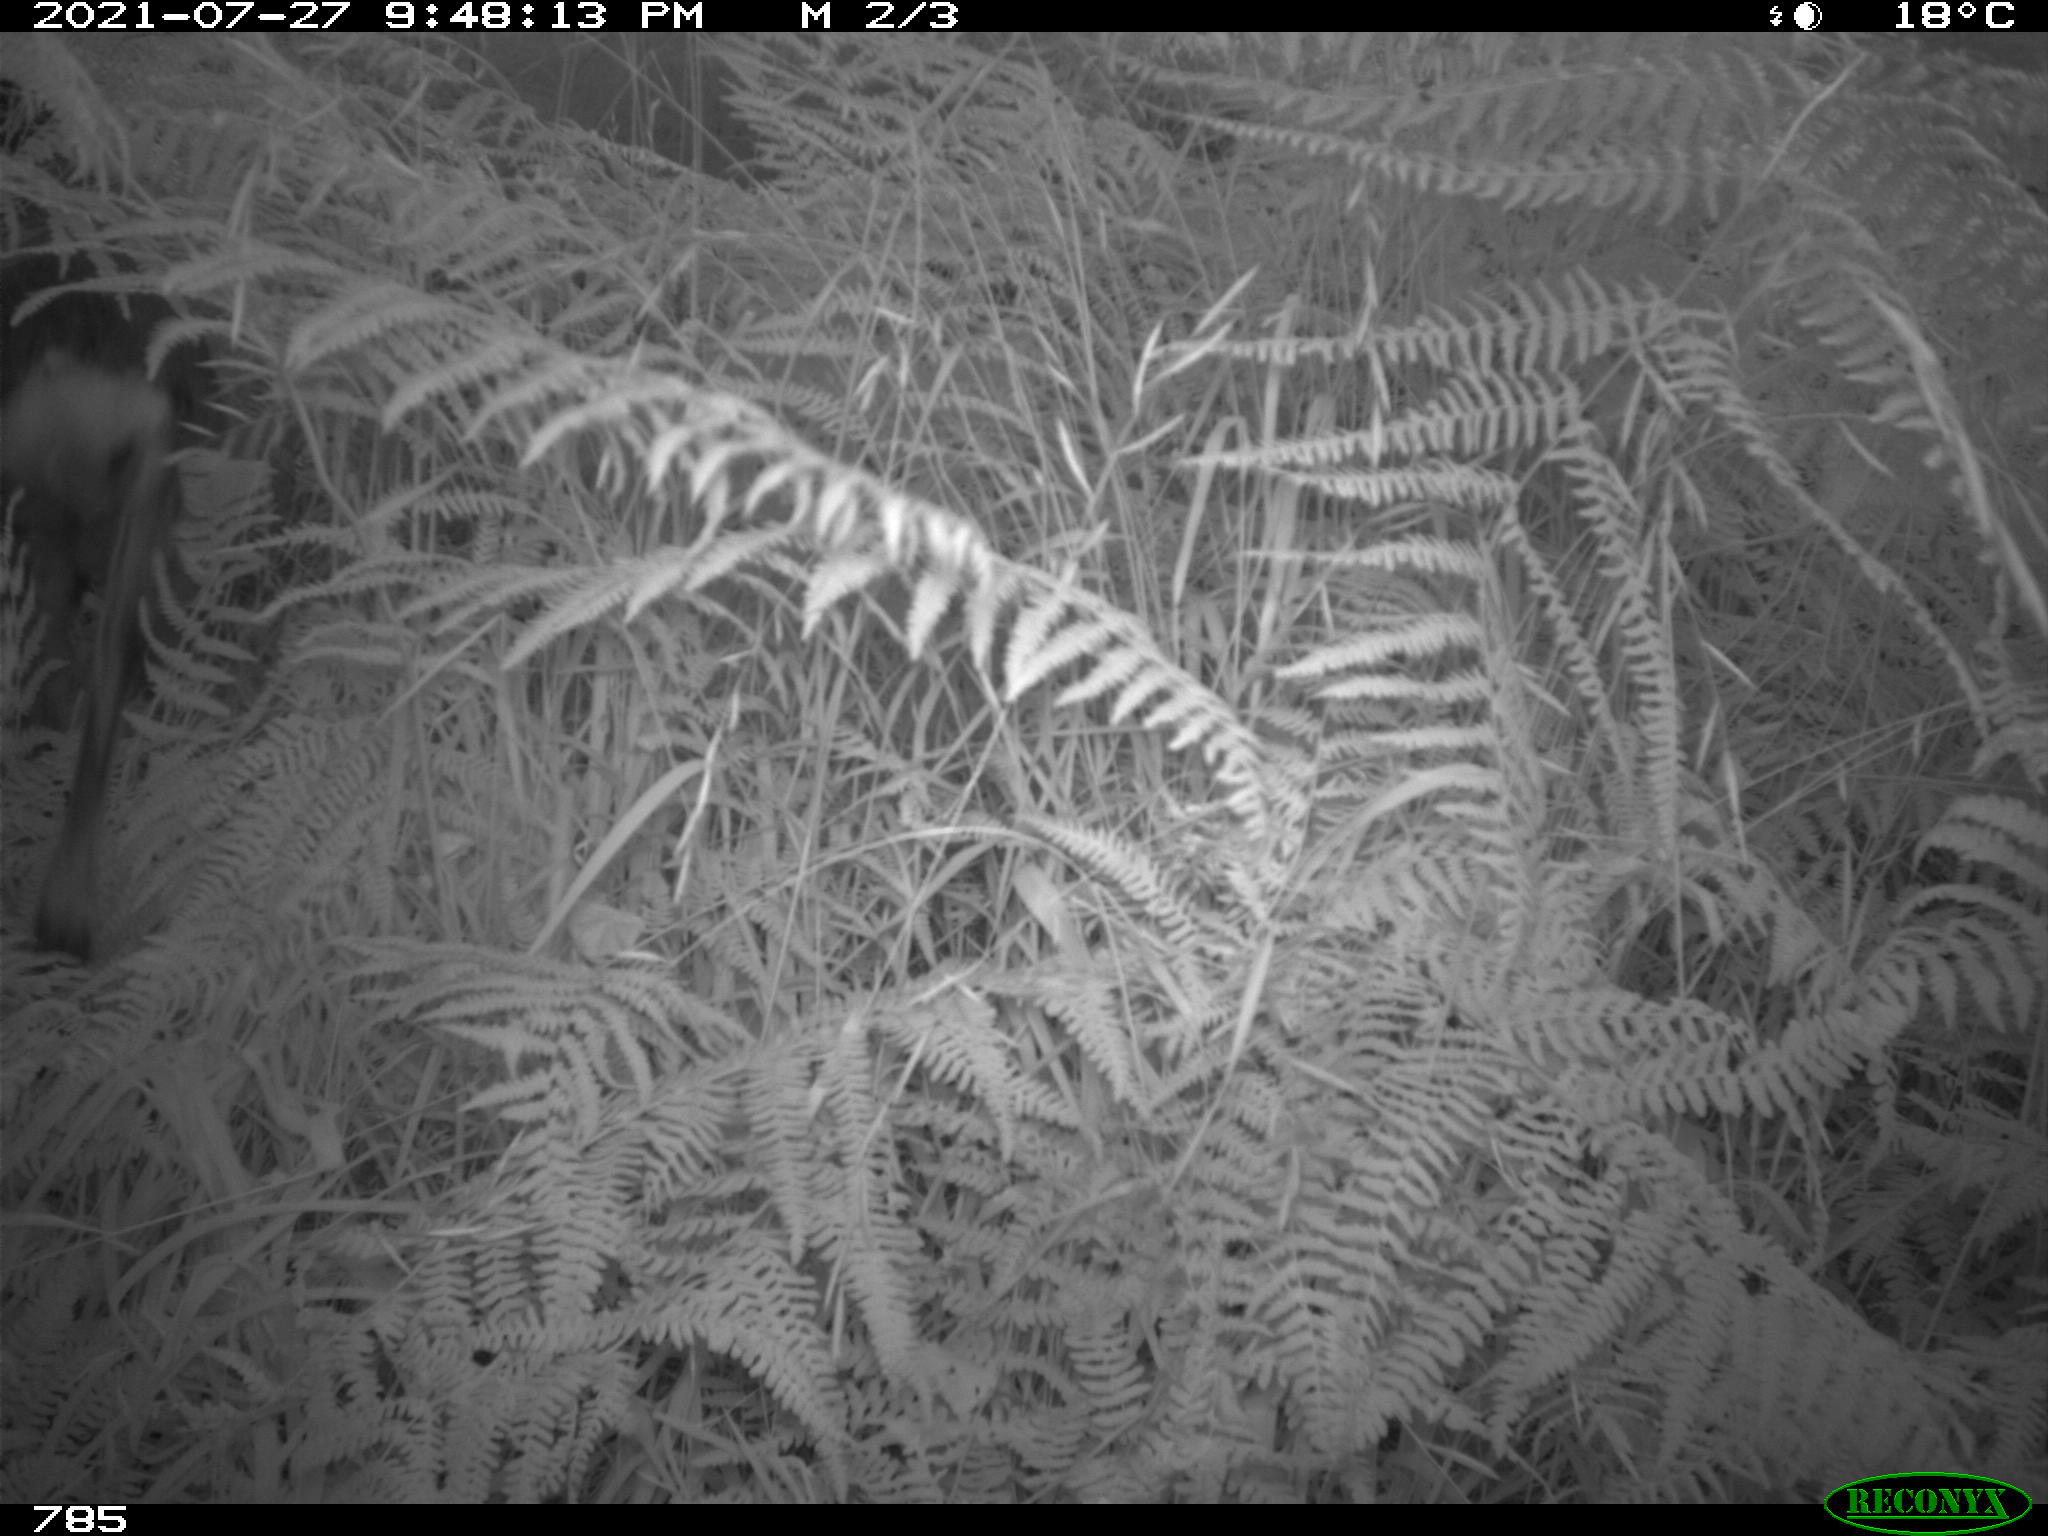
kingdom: Animalia
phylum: Chordata
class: Mammalia
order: Artiodactyla
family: Cervidae
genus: Capreolus
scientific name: Capreolus capreolus
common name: Western roe deer
